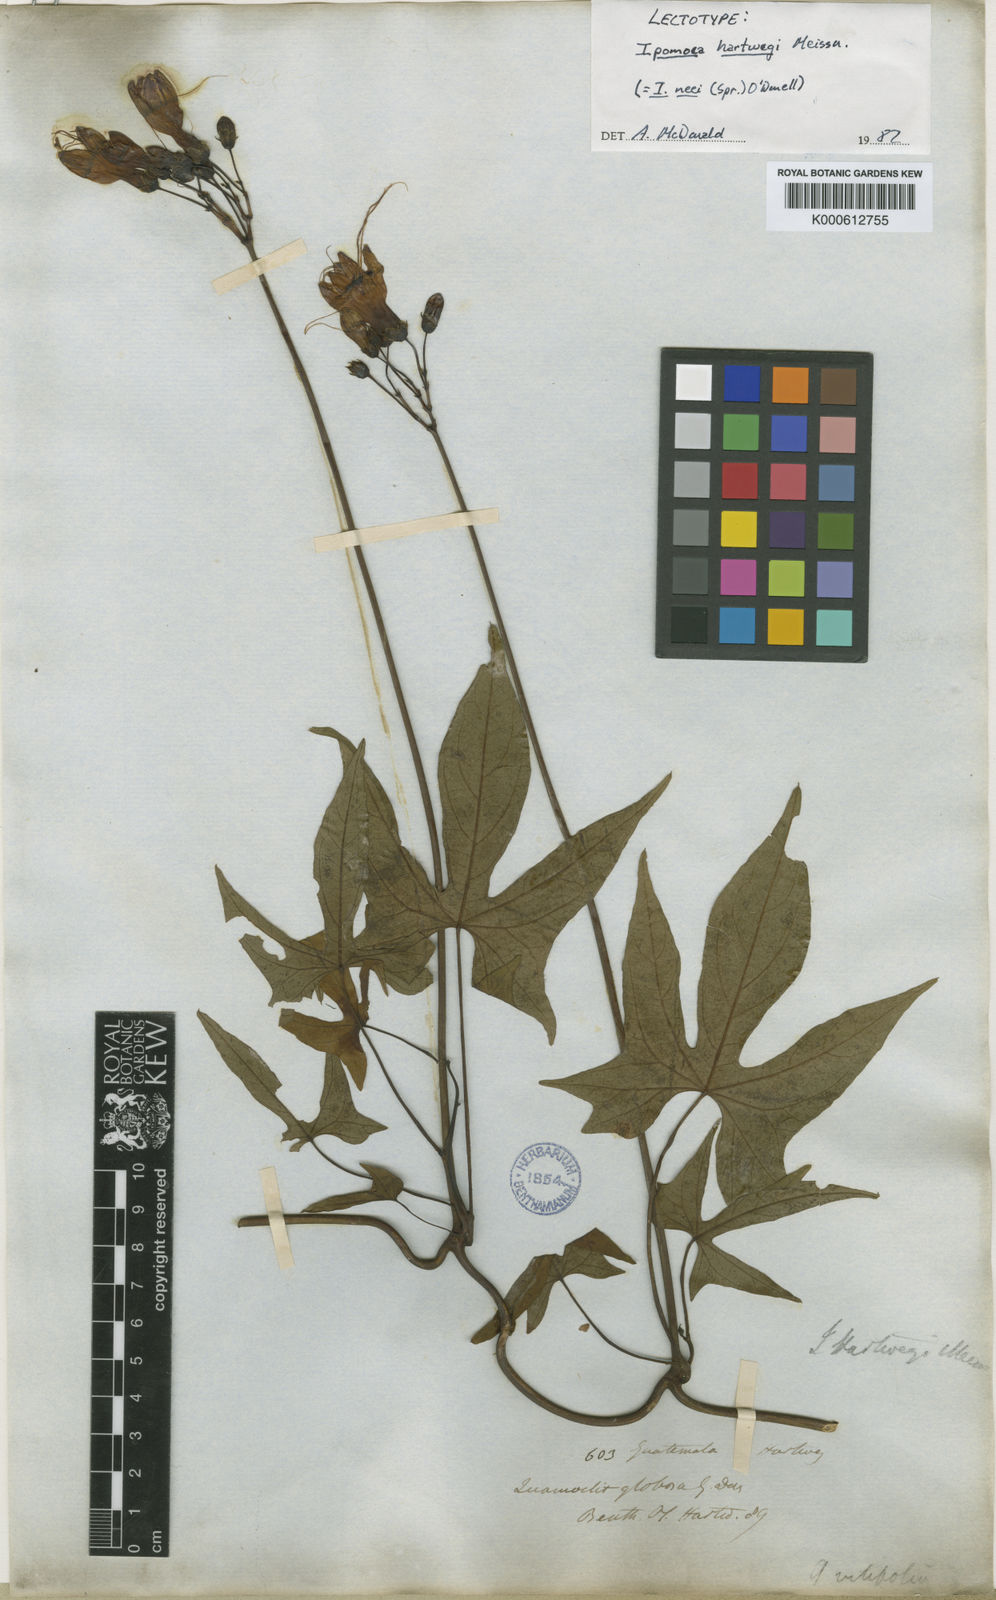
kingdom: Plantae
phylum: Tracheophyta
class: Magnoliopsida
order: Solanales
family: Convolvulaceae
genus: Ipomoea
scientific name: Ipomoea neei
